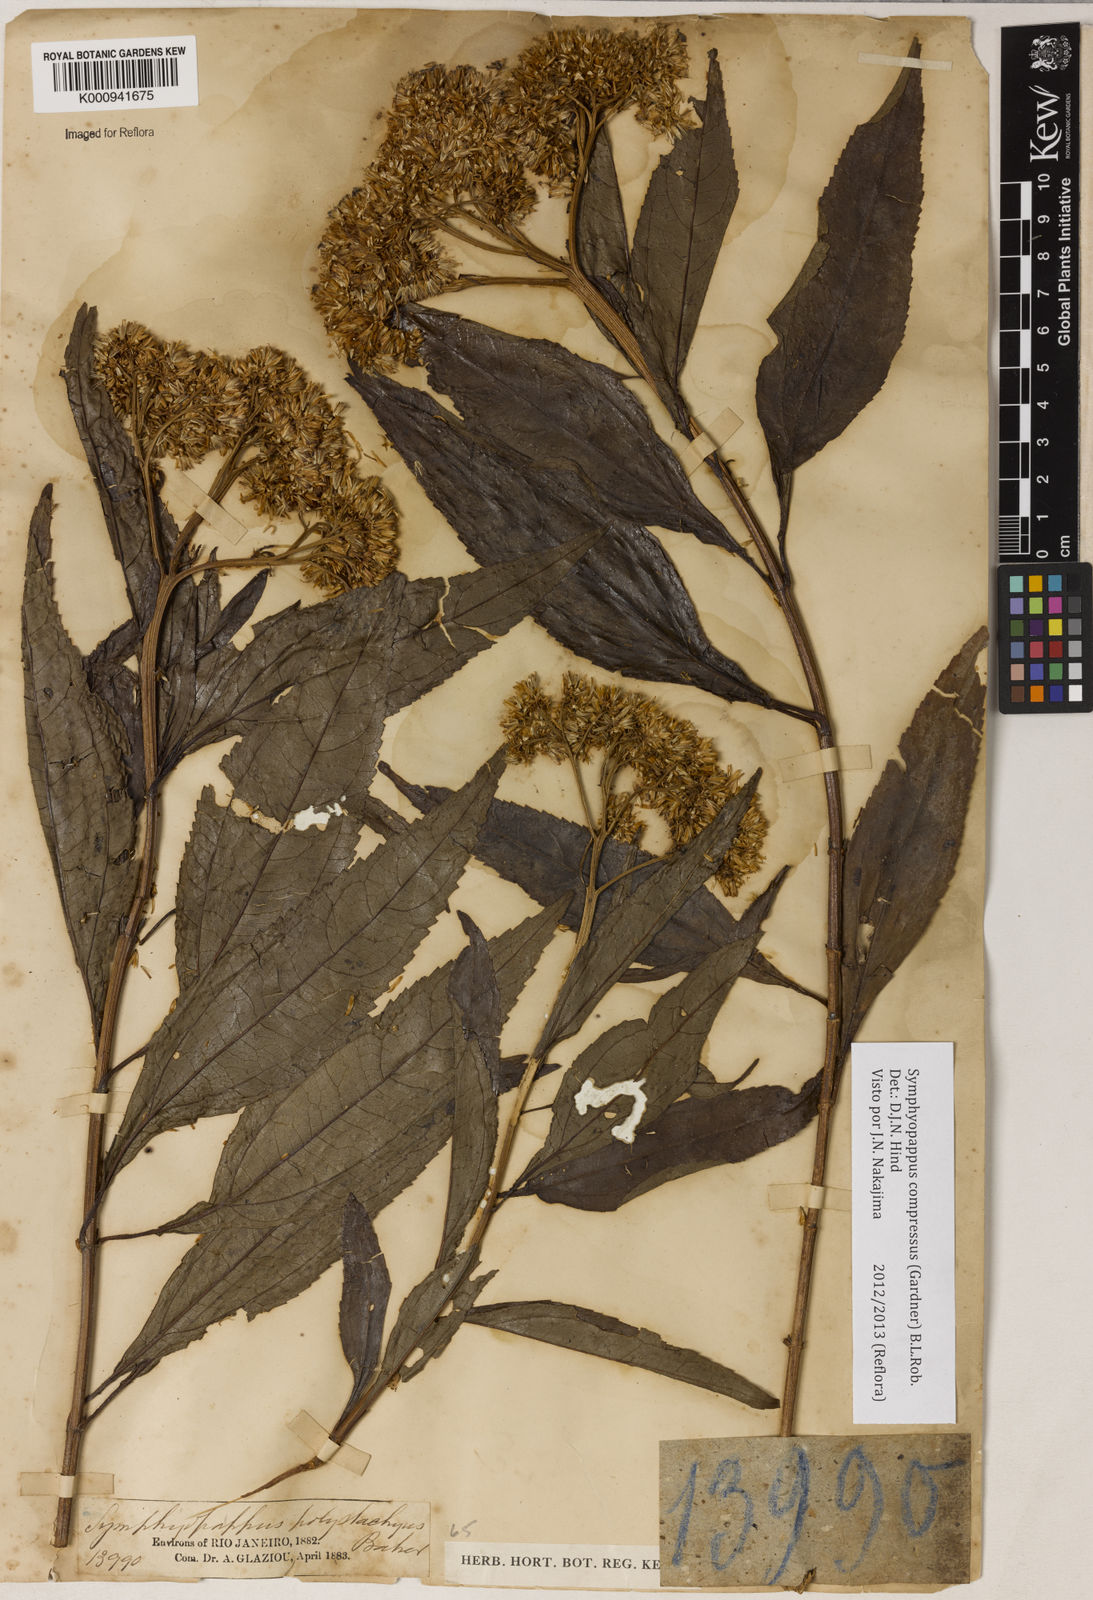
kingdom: Plantae
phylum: Tracheophyta
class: Magnoliopsida
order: Asterales
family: Asteraceae
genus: Symphyopappus
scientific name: Symphyopappus compressus
